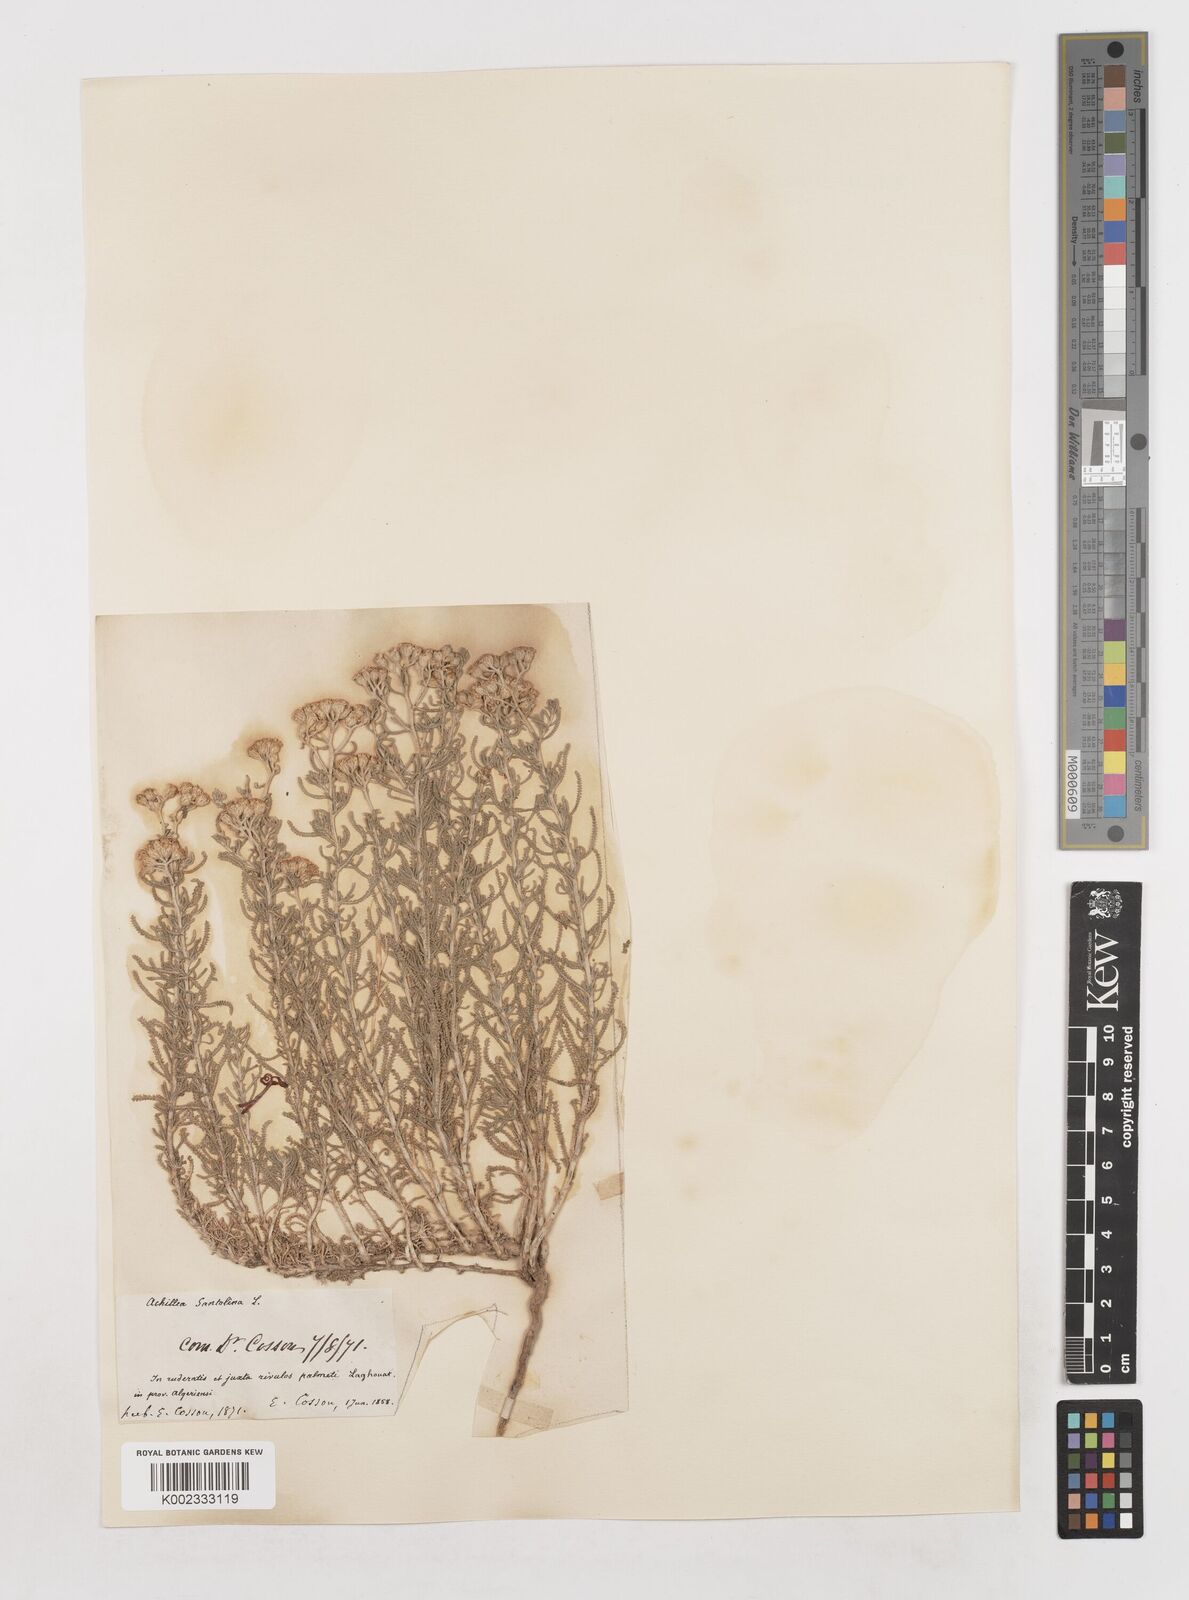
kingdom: Plantae
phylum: Tracheophyta
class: Magnoliopsida
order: Asterales
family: Asteraceae
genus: Achillea
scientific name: Achillea tenuifolia
